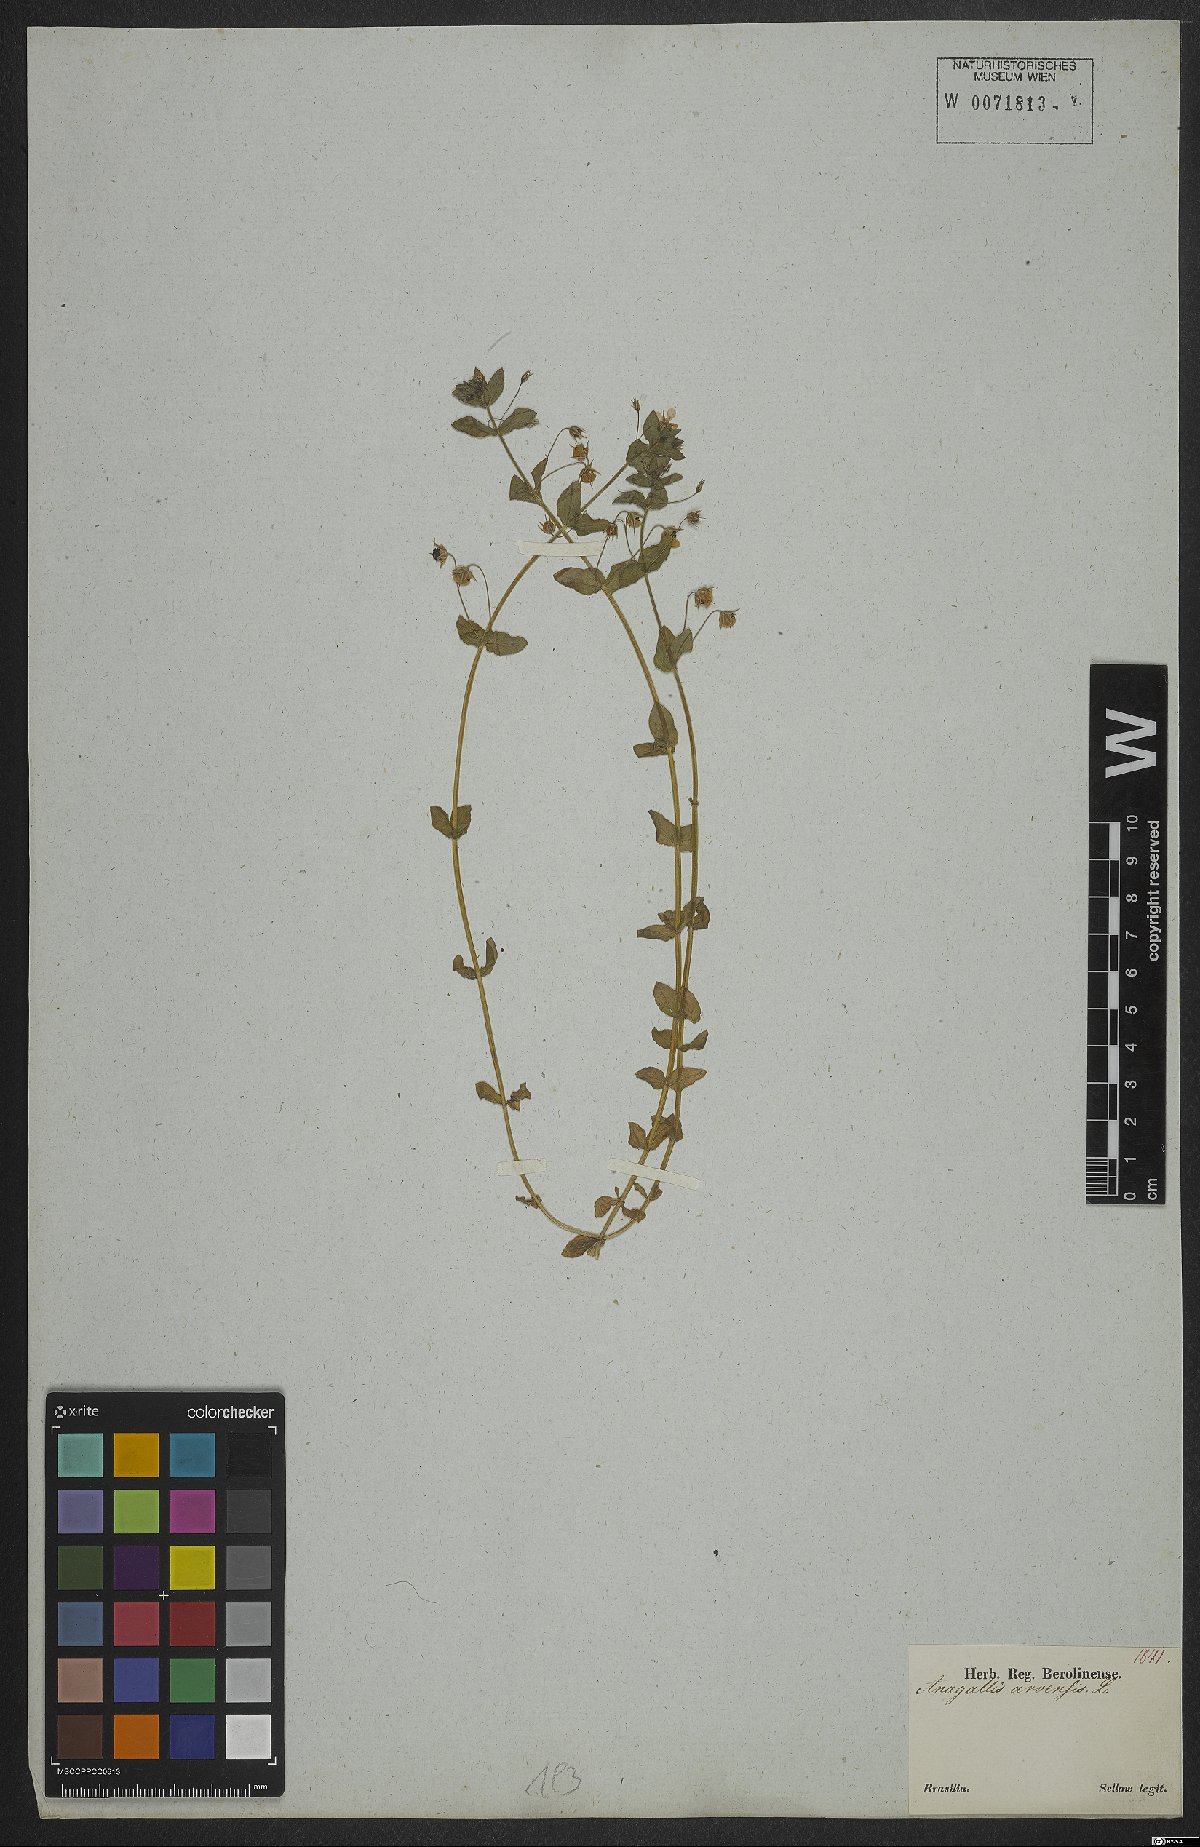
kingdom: Plantae
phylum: Tracheophyta
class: Magnoliopsida
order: Ericales
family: Primulaceae
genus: Lysimachia
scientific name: Lysimachia arvensis
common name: Scarlet pimpernel
